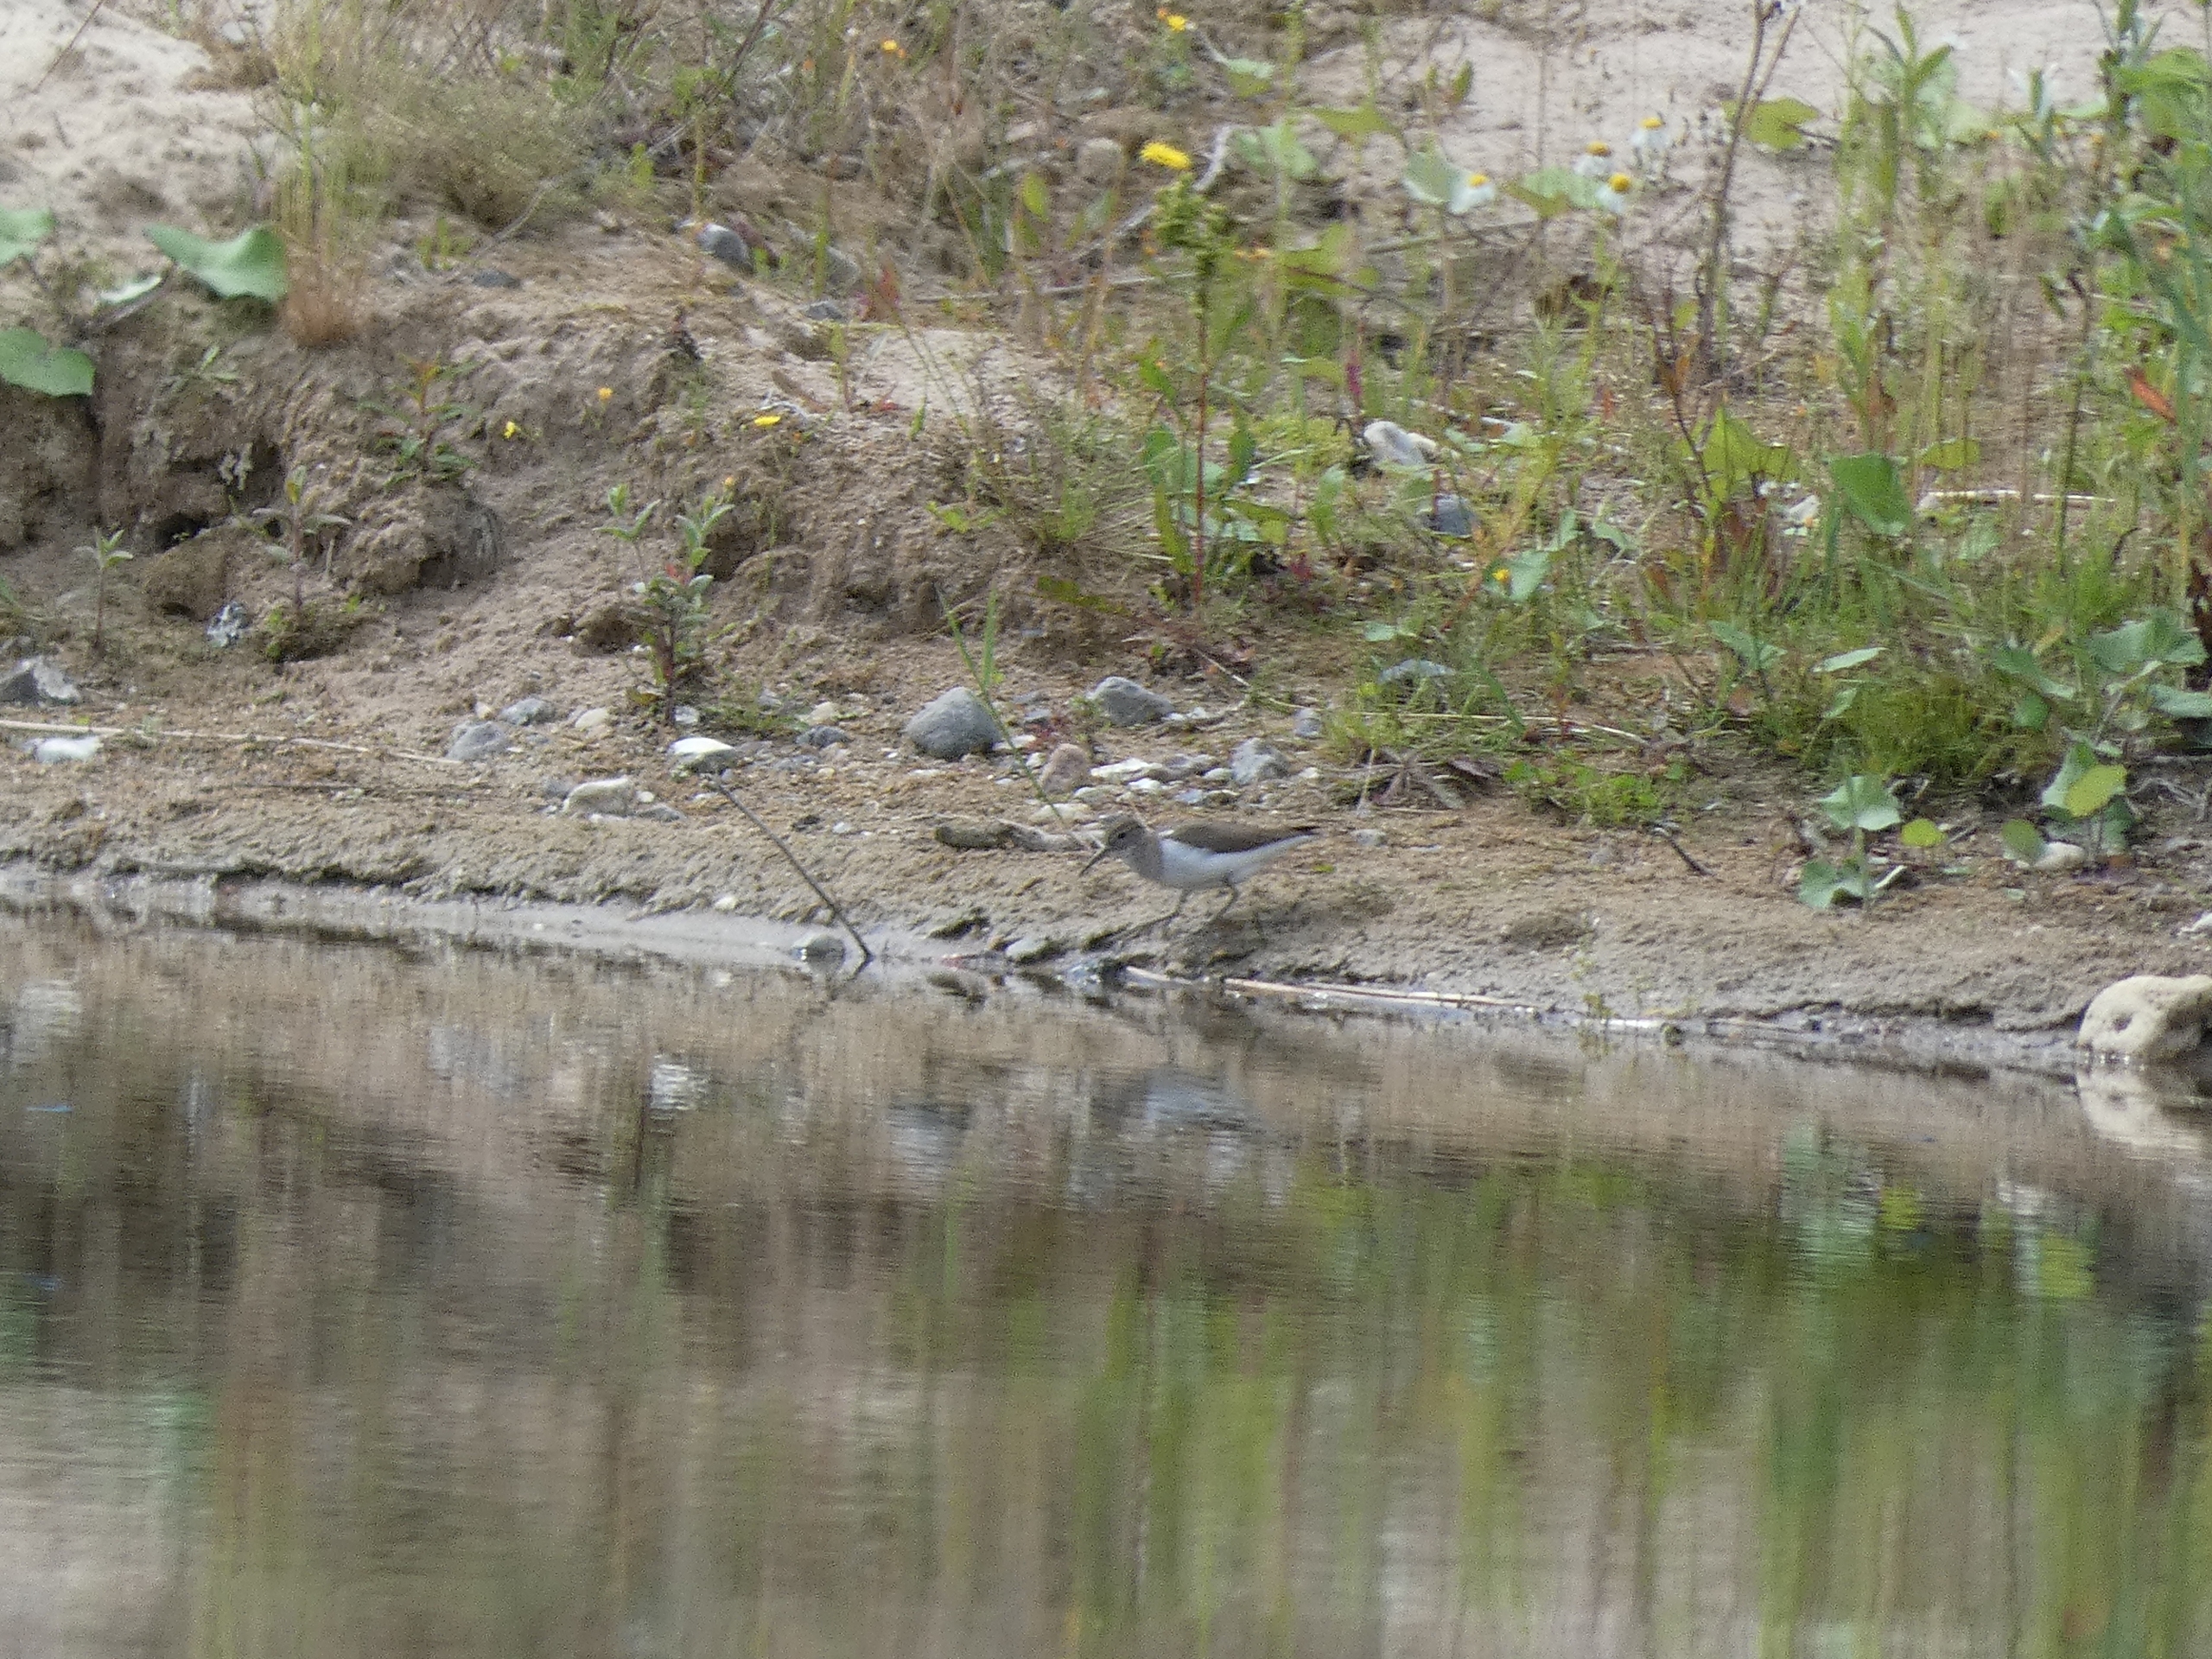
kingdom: Animalia
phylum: Chordata
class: Aves
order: Charadriiformes
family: Scolopacidae
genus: Actitis
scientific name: Actitis hypoleucos
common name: Mudderklire
